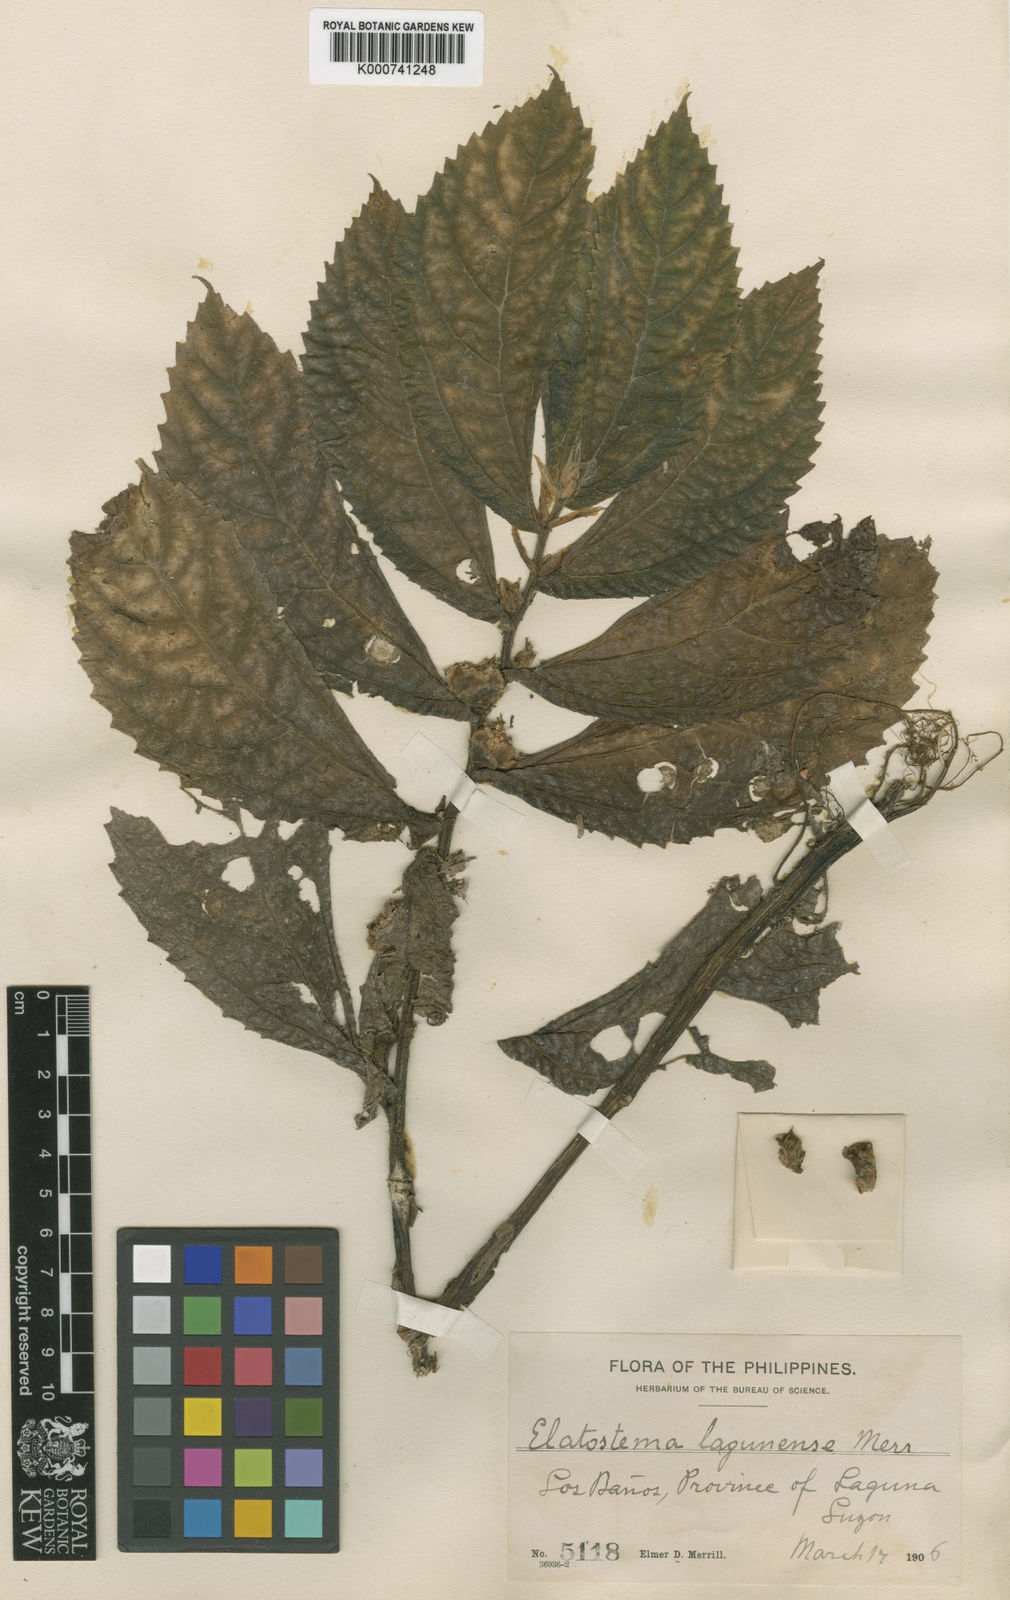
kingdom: Plantae
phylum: Tracheophyta
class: Magnoliopsida
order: Rosales
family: Urticaceae
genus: Elatostema
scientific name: Elatostema lagunense
